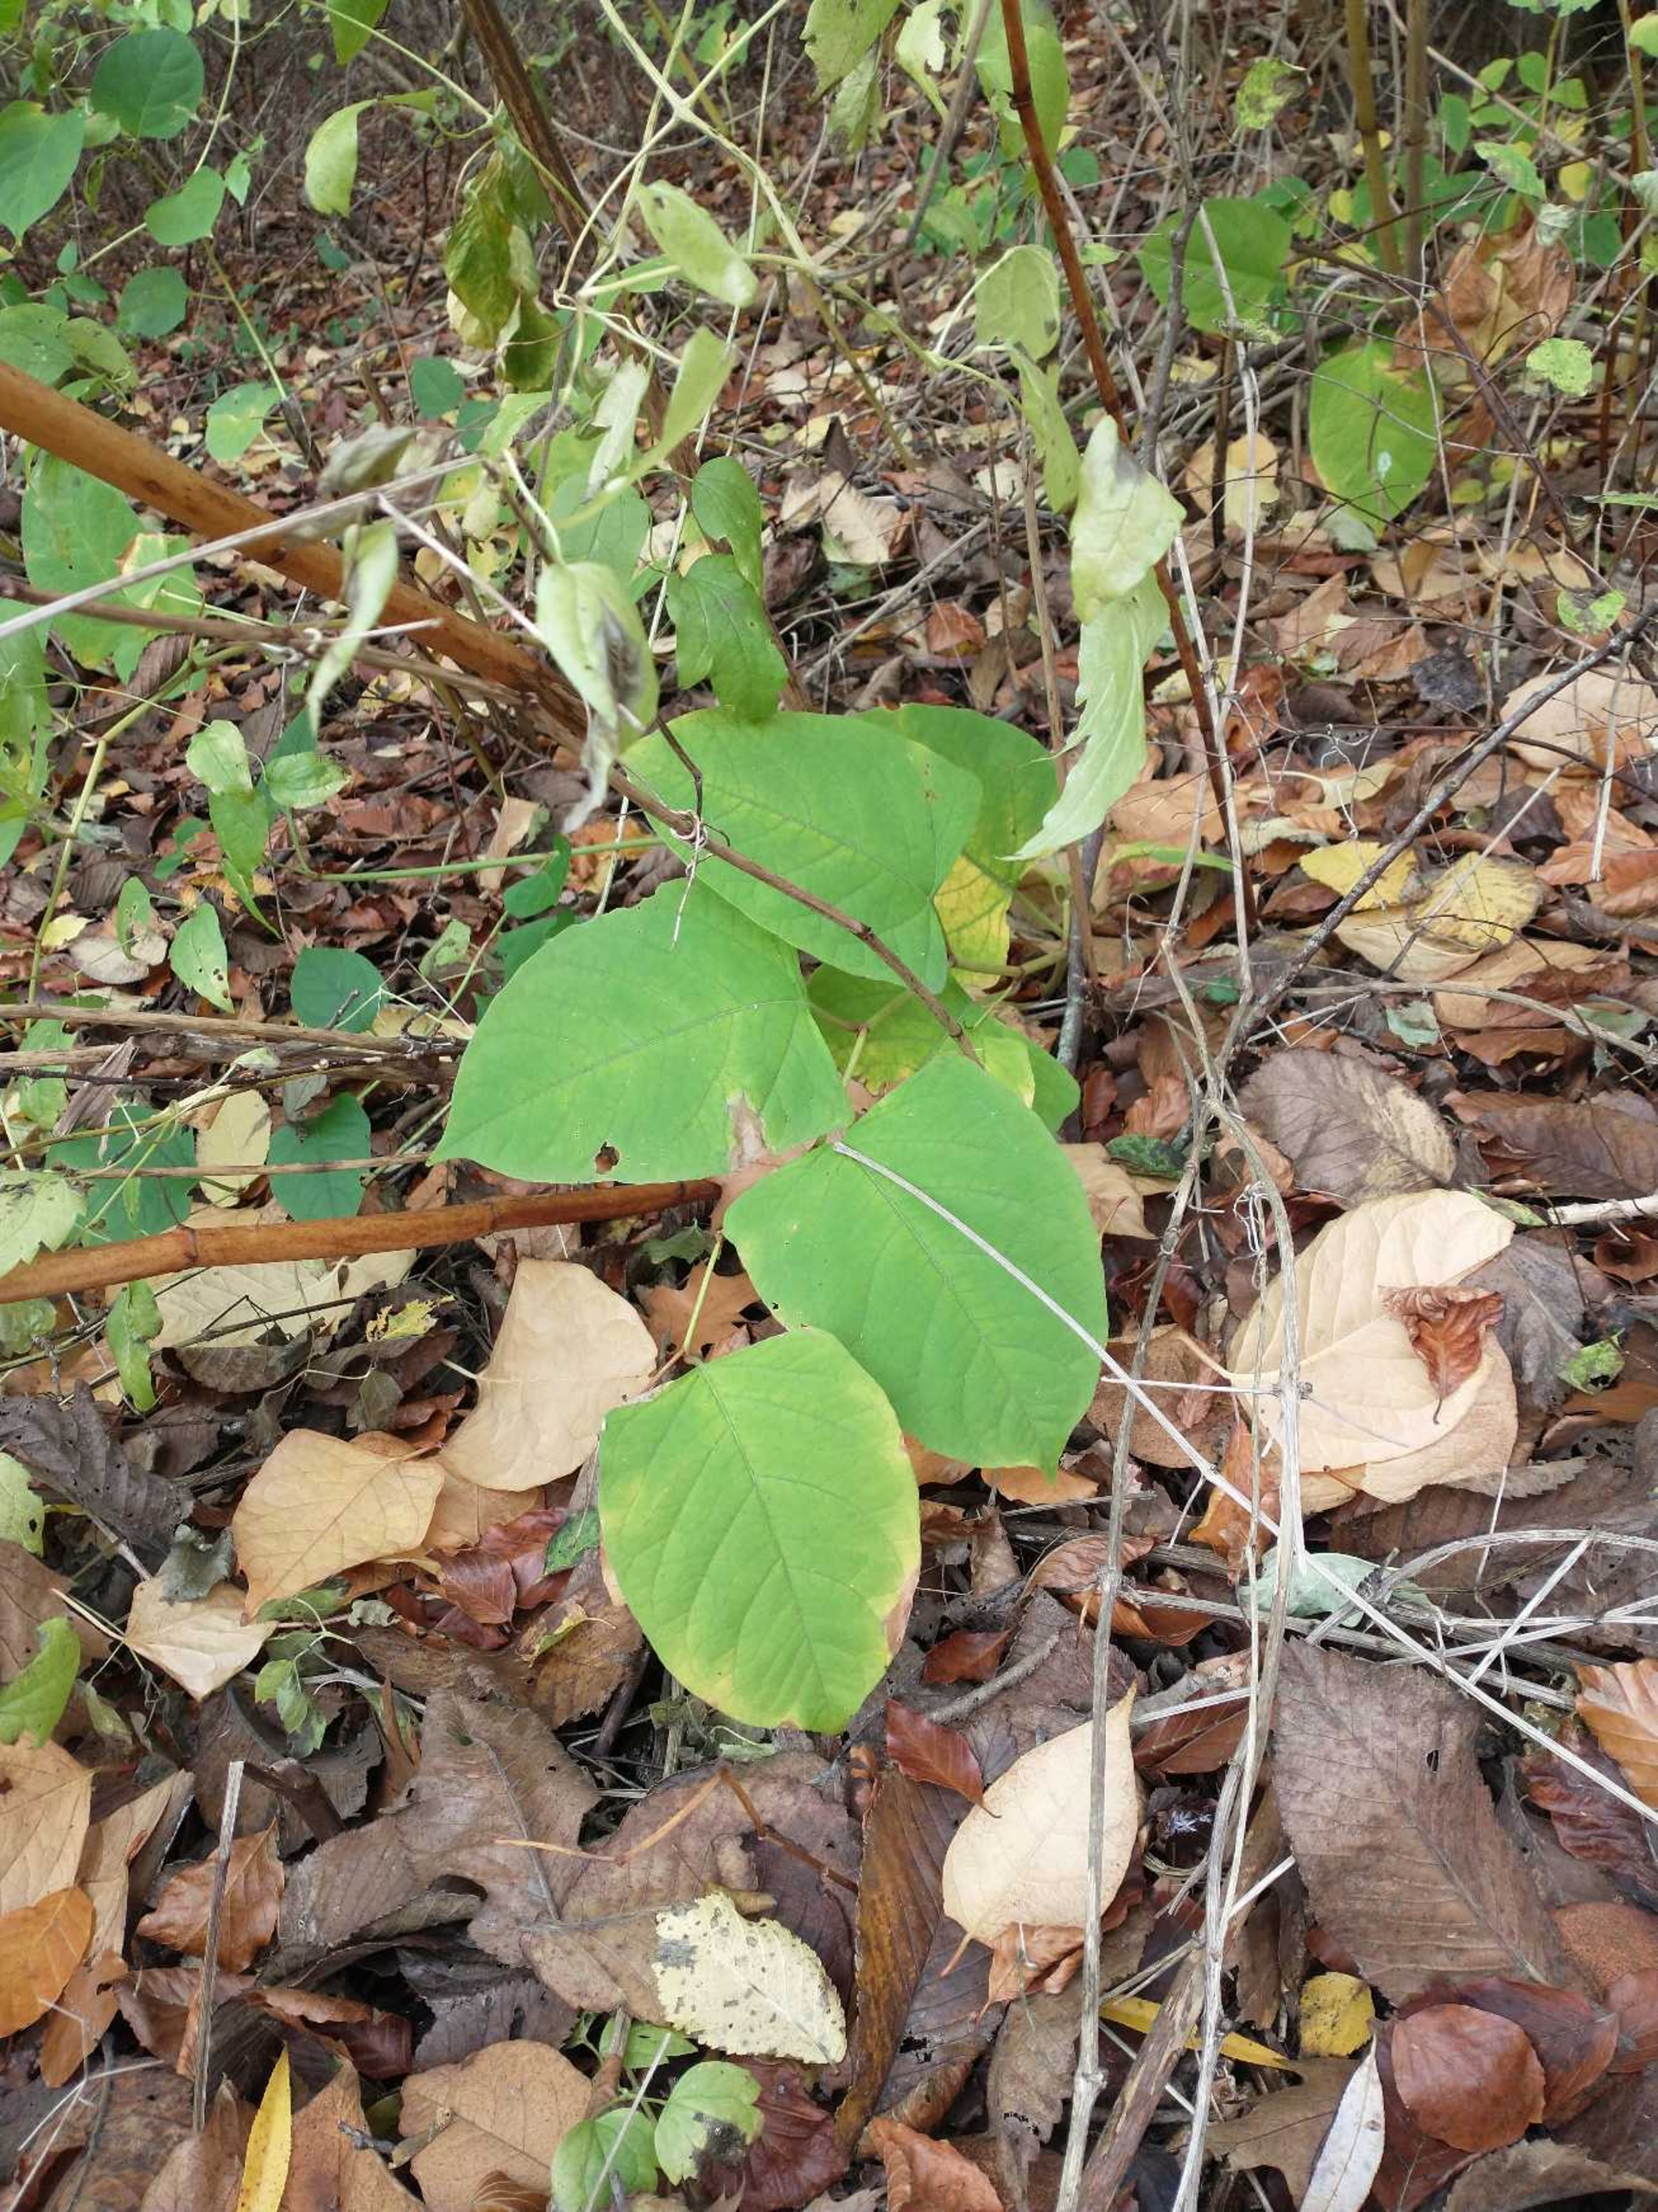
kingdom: Plantae
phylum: Tracheophyta
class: Magnoliopsida
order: Caryophyllales
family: Polygonaceae
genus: Reynoutria
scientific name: Reynoutria japonica
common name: Japan-pileurt
